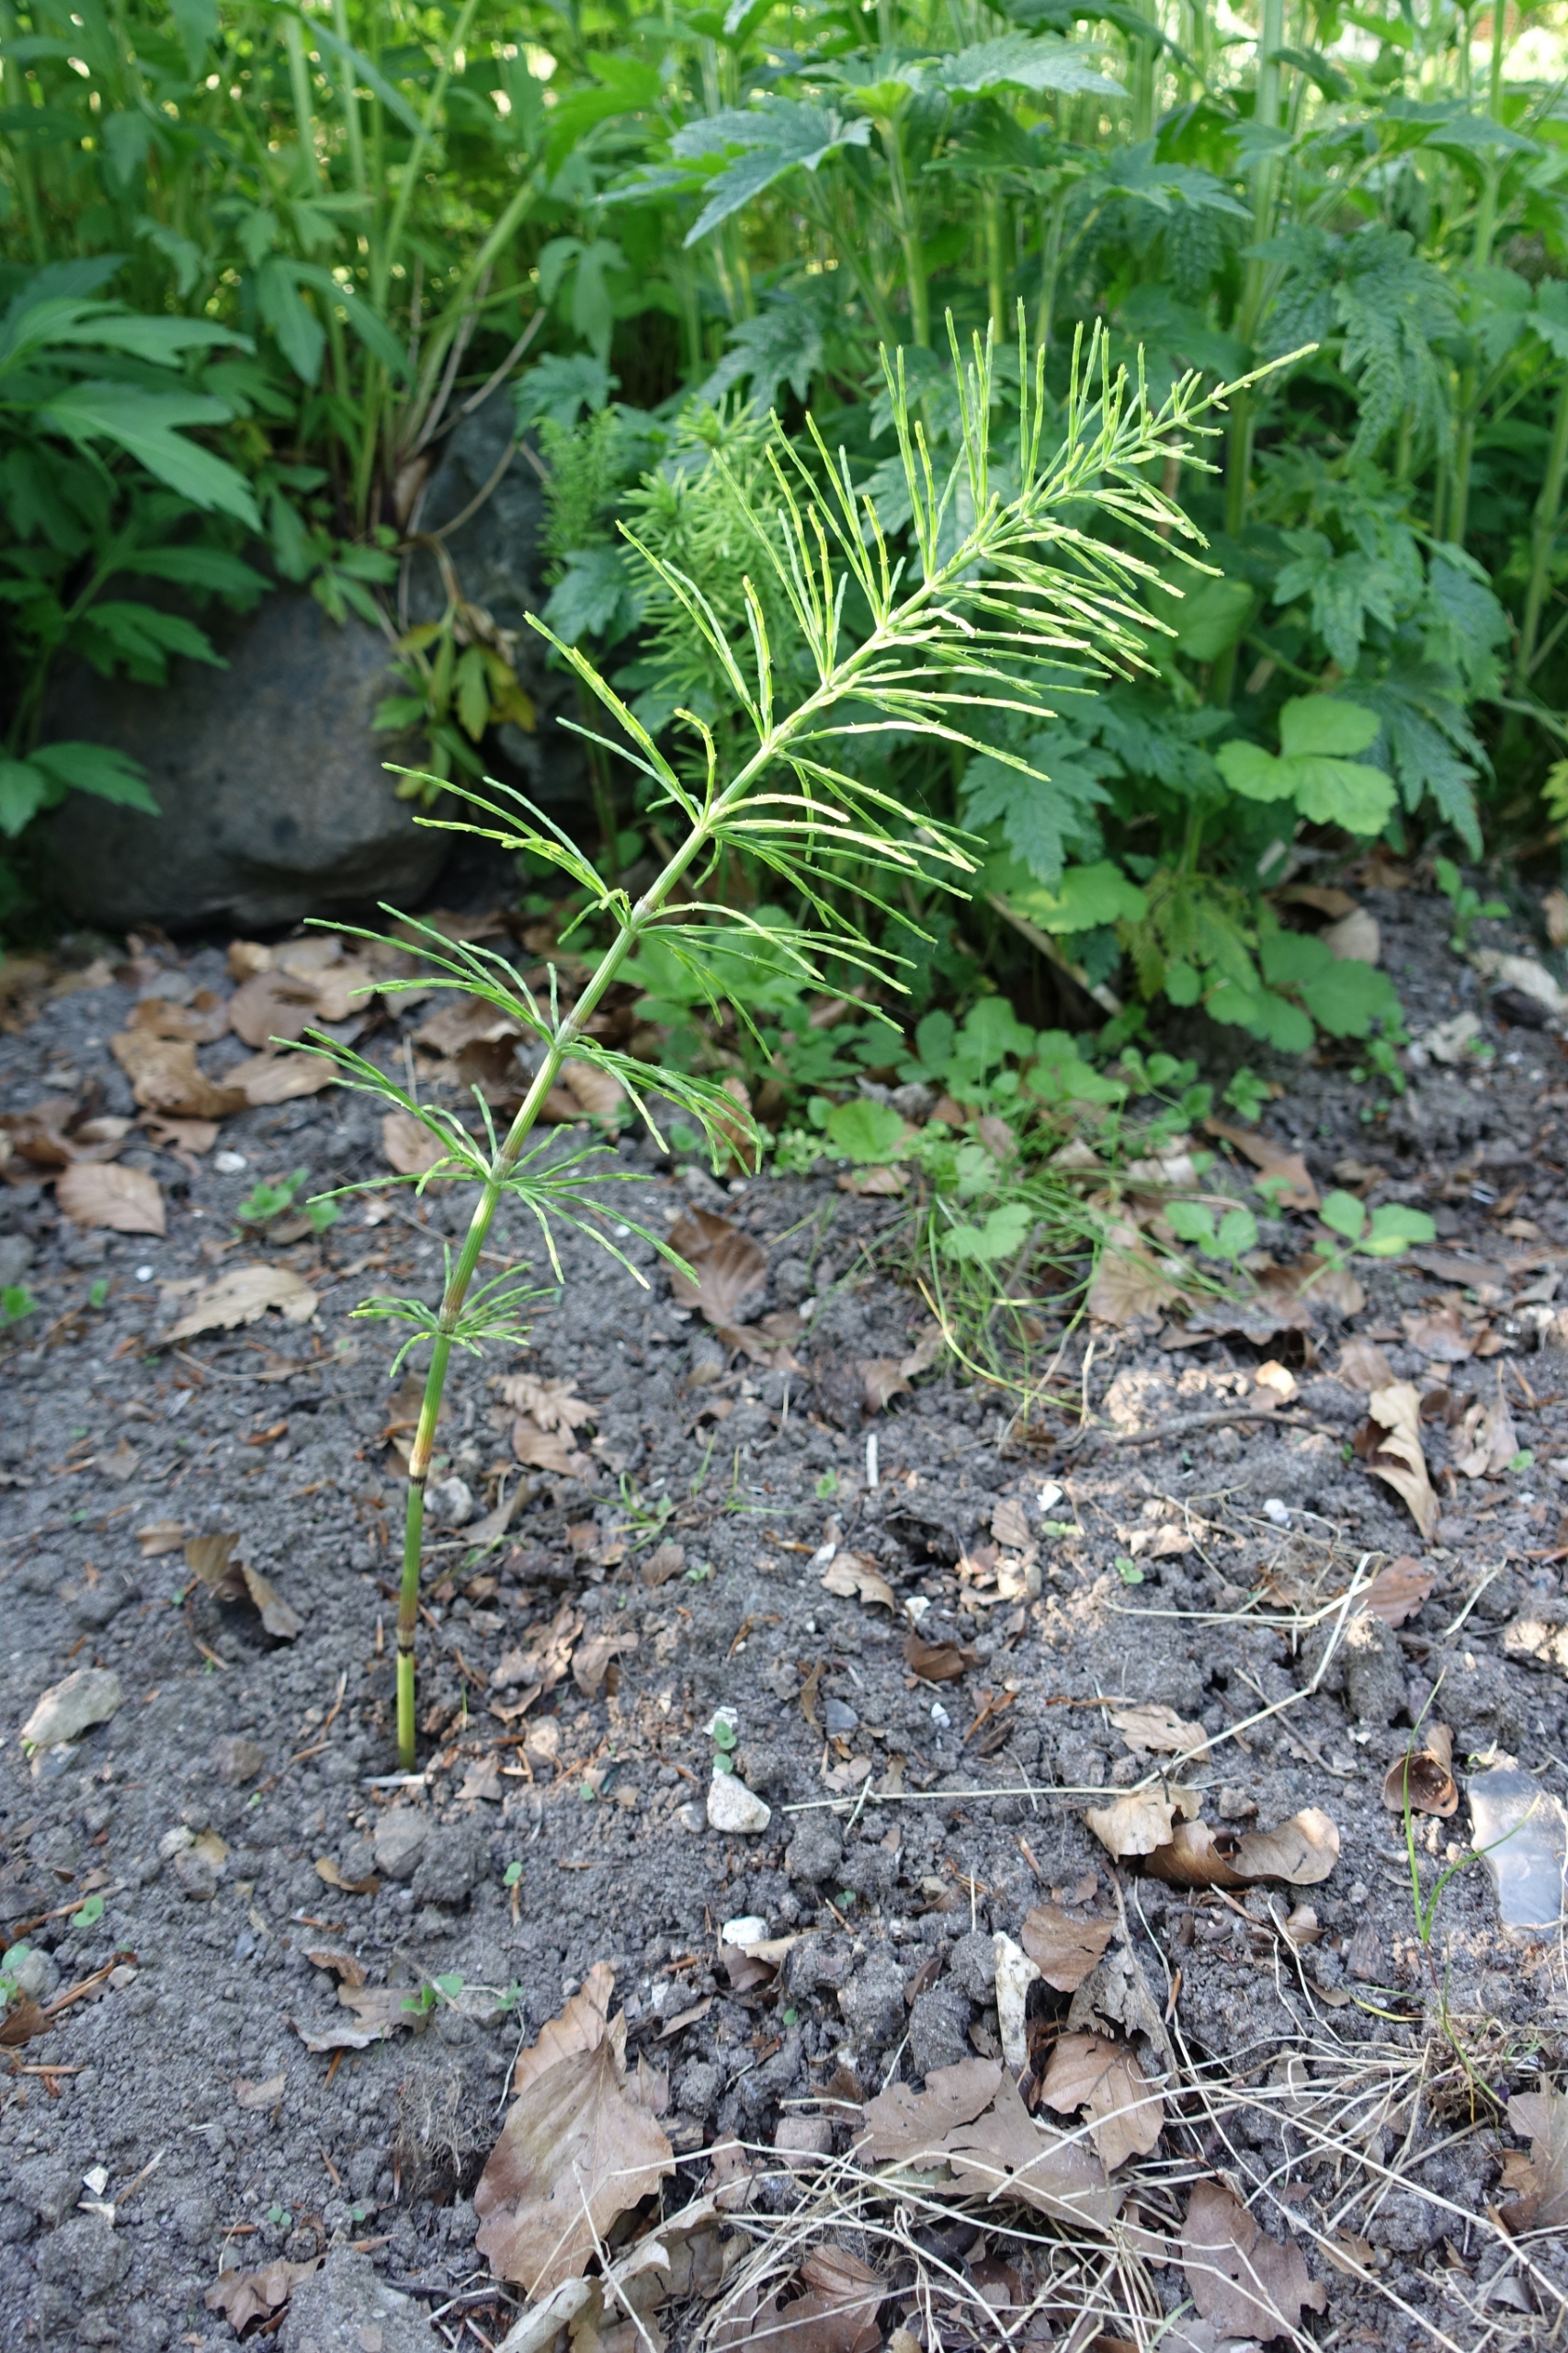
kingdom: Plantae
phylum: Tracheophyta
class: Polypodiopsida
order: Equisetales
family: Equisetaceae
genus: Equisetum
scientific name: Equisetum arvense
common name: Ager-padderok
